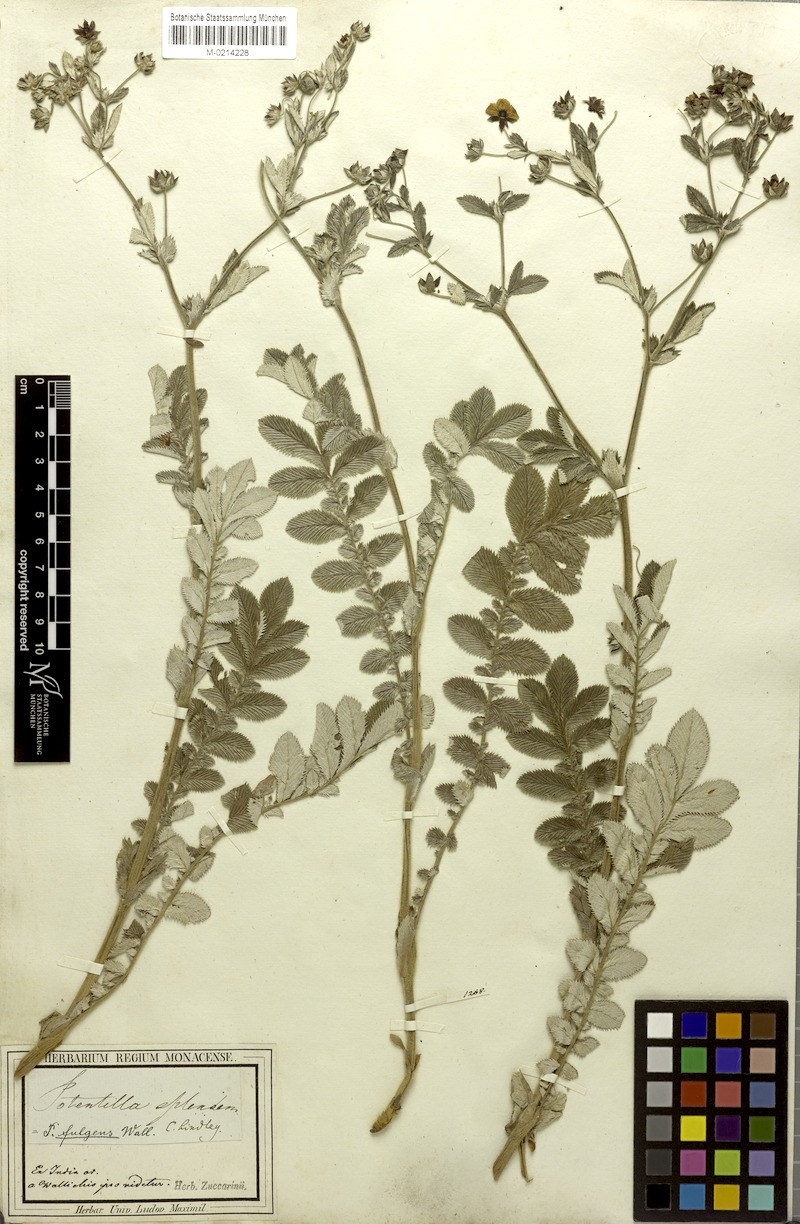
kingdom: Plantae
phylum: Tracheophyta
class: Magnoliopsida
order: Rosales
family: Rosaceae
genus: Argentina
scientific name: Argentina lineata
